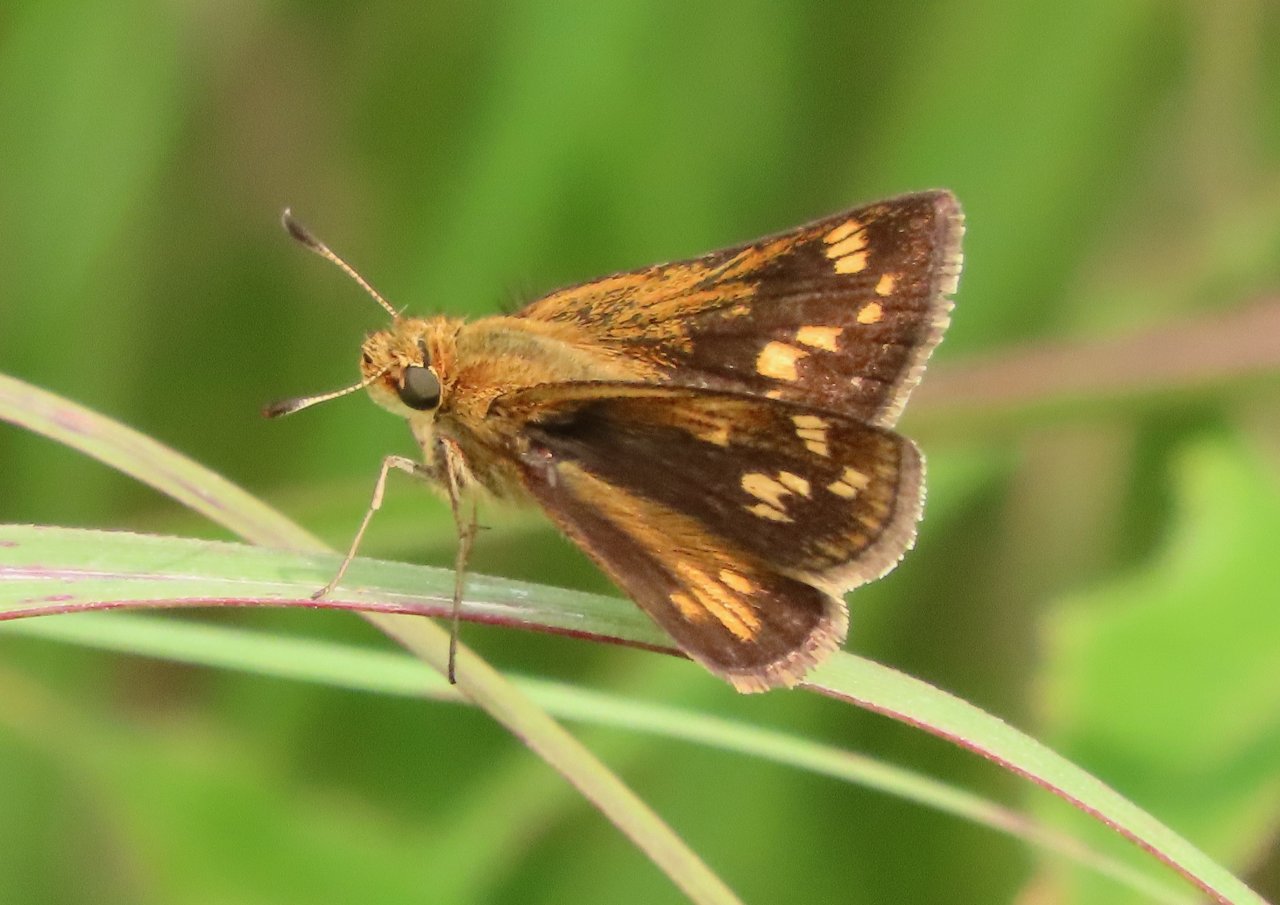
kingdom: Animalia
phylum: Arthropoda
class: Insecta
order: Lepidoptera
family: Hesperiidae
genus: Polites
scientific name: Polites coras
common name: Peck's Skipper
